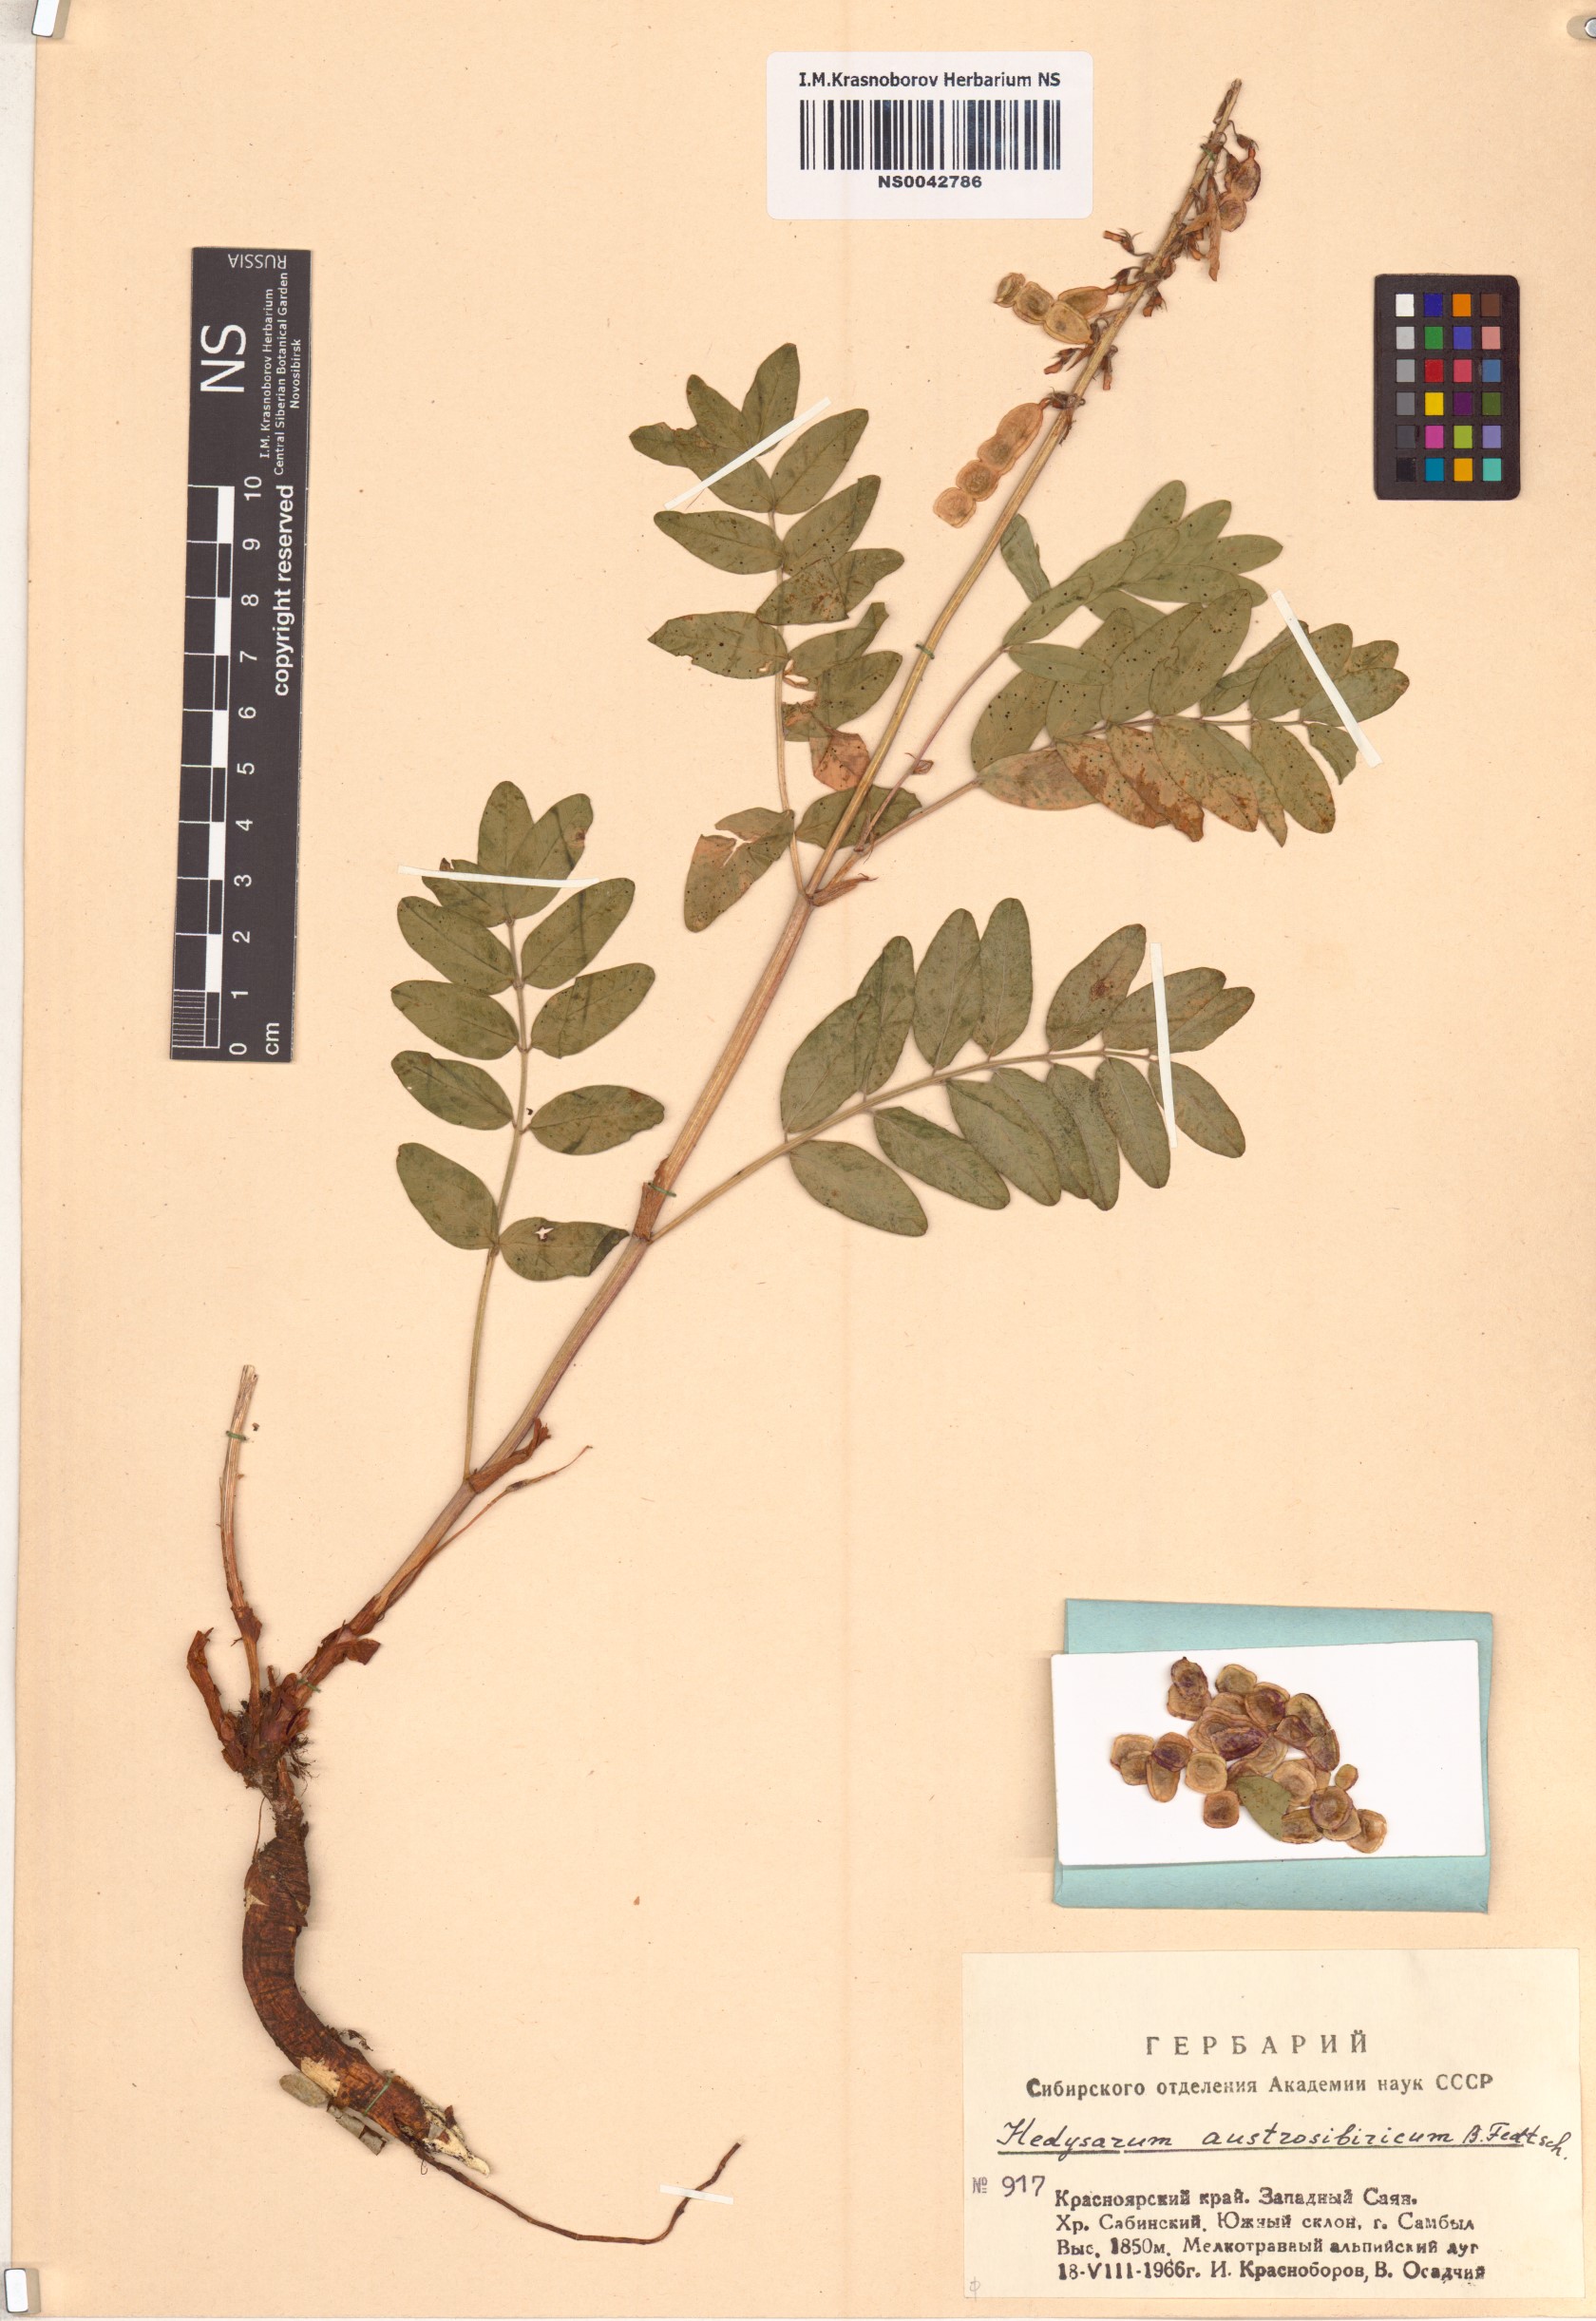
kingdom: Plantae
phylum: Tracheophyta
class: Magnoliopsida
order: Fabales
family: Fabaceae
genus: Hedysarum
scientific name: Hedysarum neglectum
